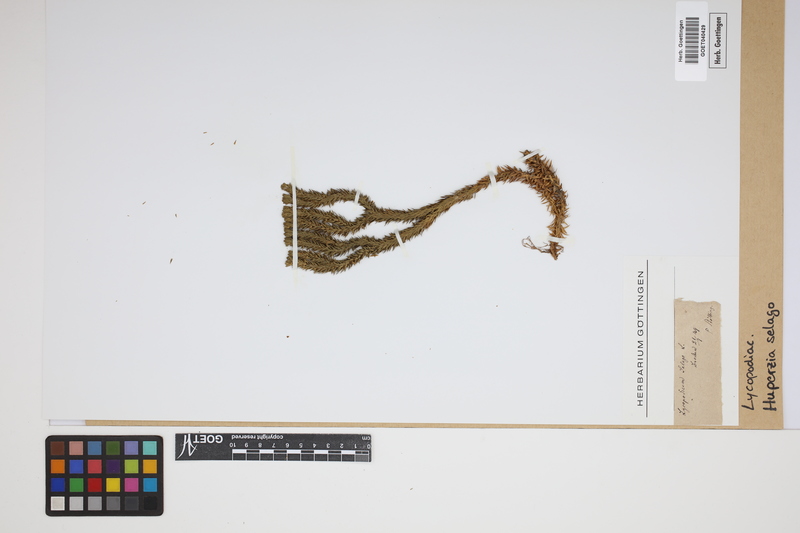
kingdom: Plantae
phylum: Tracheophyta
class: Lycopodiopsida
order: Lycopodiales
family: Lycopodiaceae
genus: Huperzia
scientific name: Huperzia selago
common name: Northern firmoss
